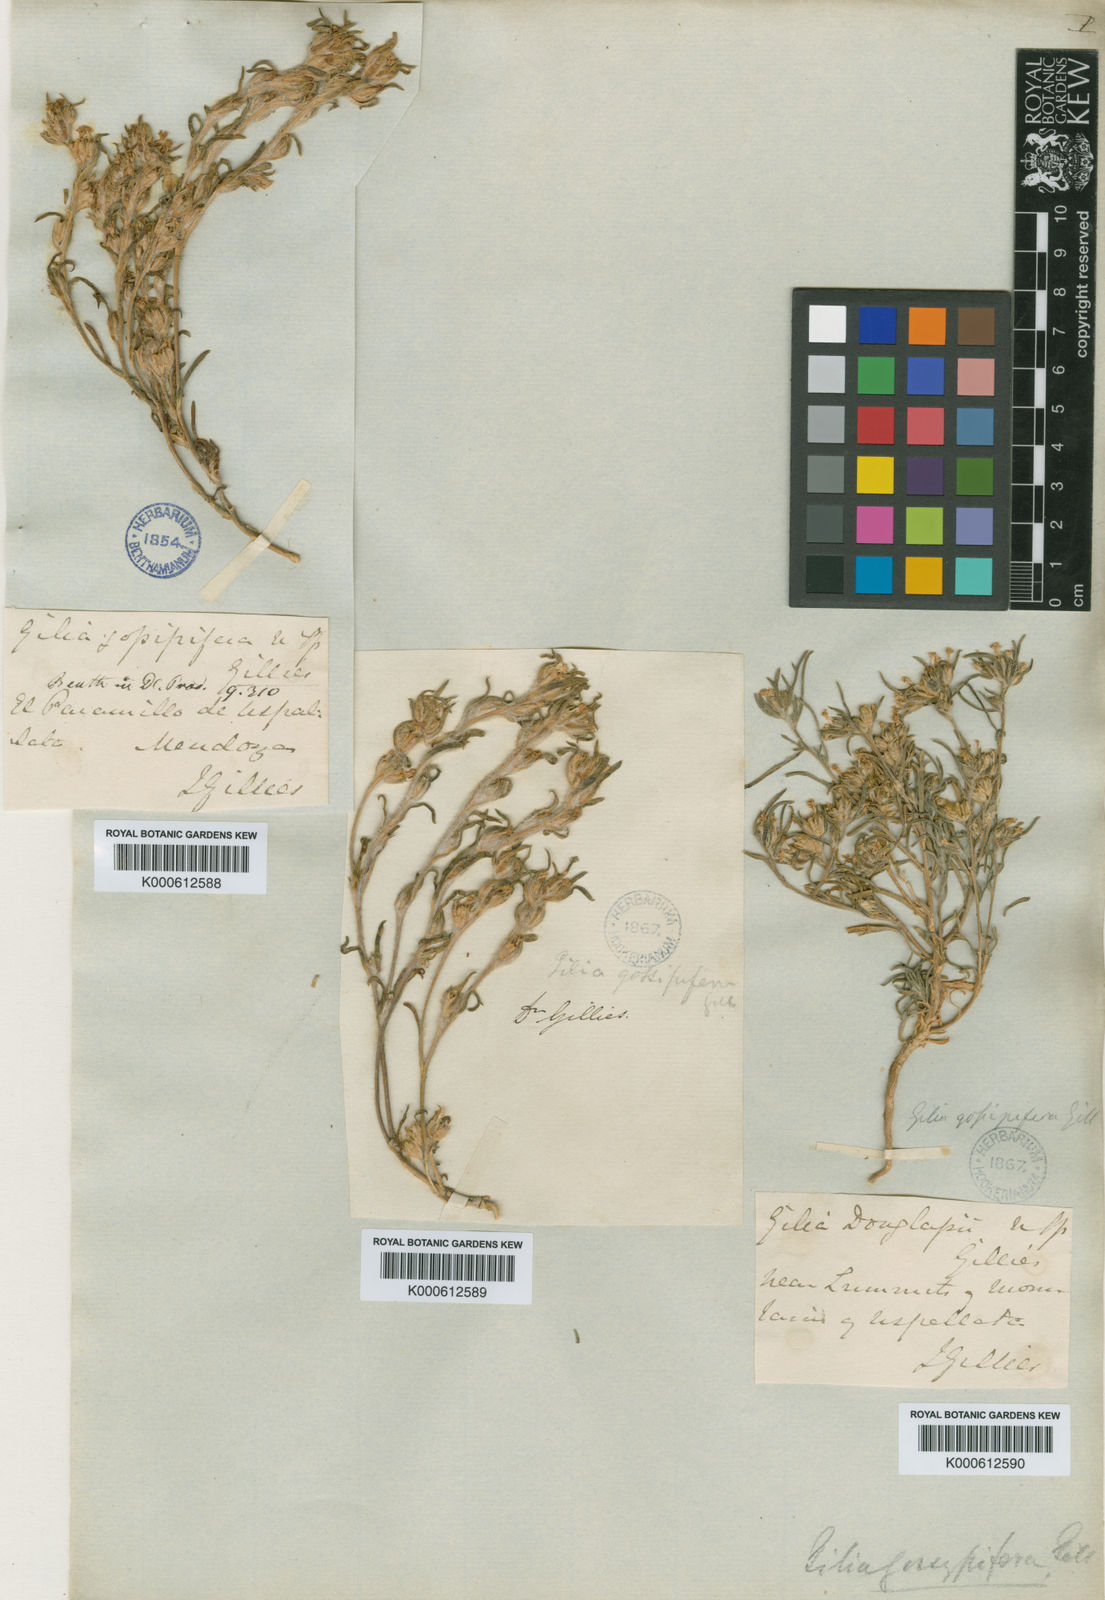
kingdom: Plantae
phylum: Tracheophyta
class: Magnoliopsida
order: Ericales
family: Polemoniaceae
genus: Ipomopsis
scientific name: Ipomopsis gossypifera
